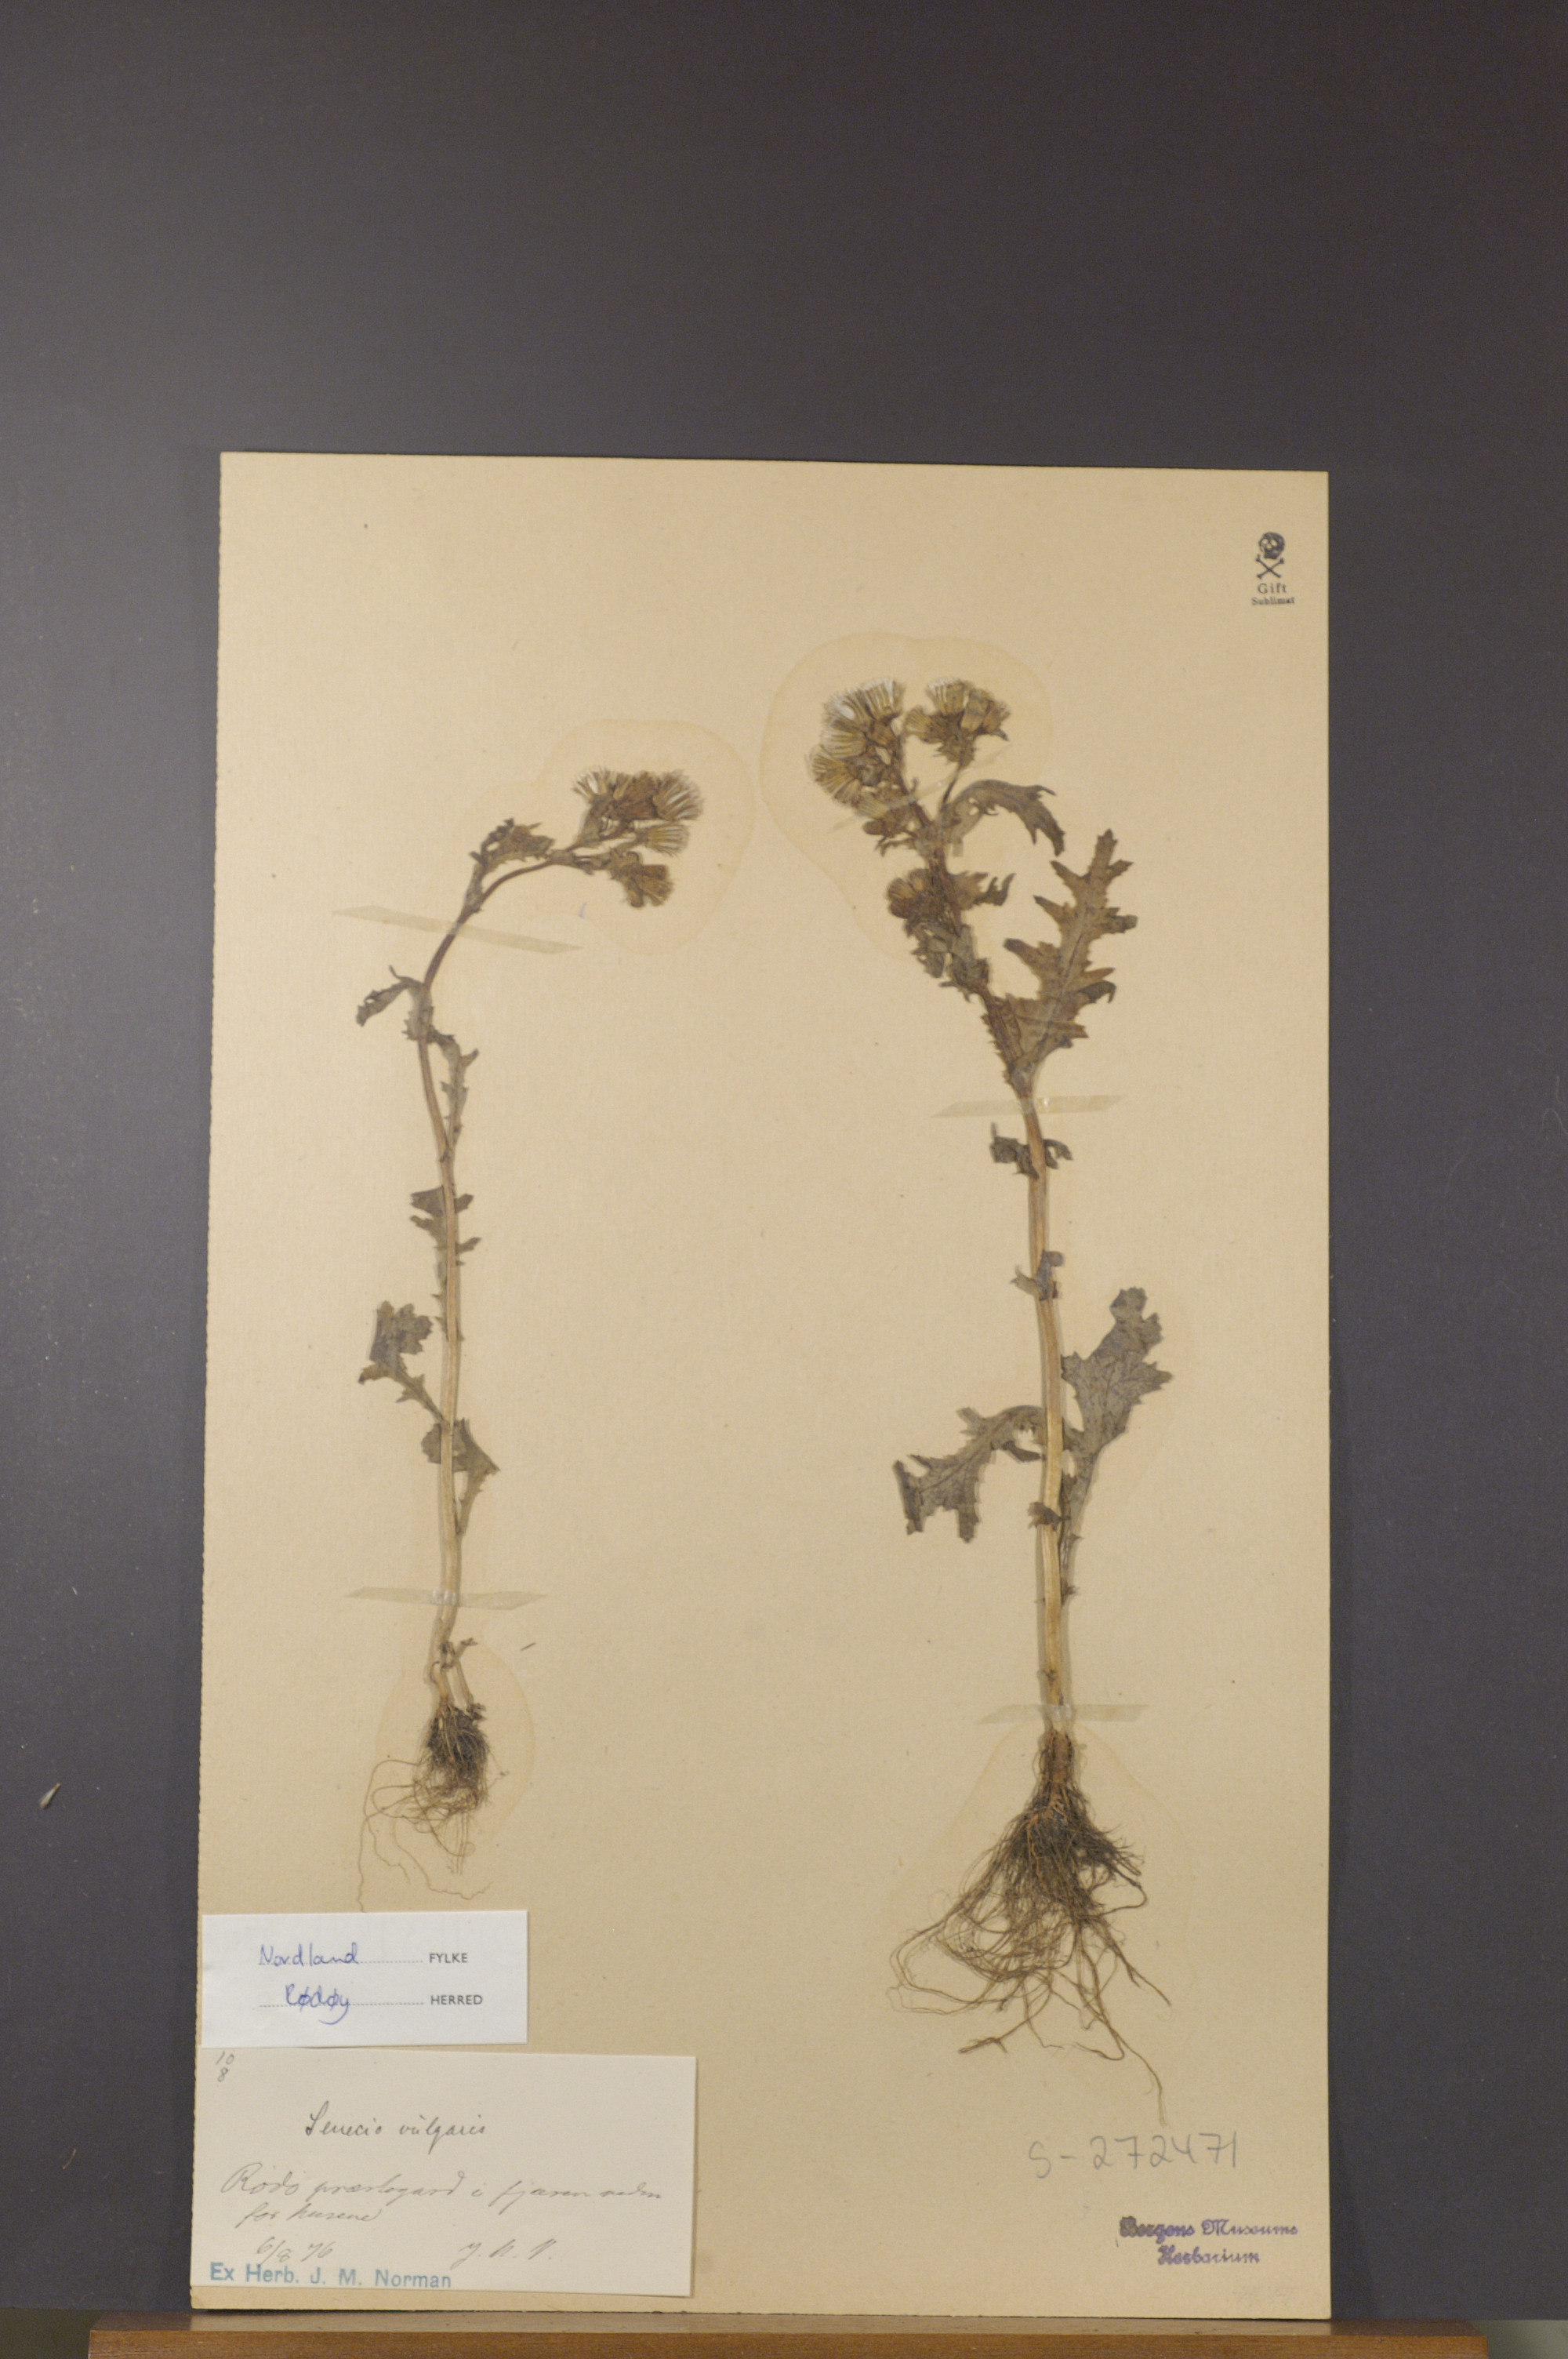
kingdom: Plantae
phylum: Tracheophyta
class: Magnoliopsida
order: Asterales
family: Asteraceae
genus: Senecio
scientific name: Senecio vulgaris
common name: Old-man-in-the-spring
